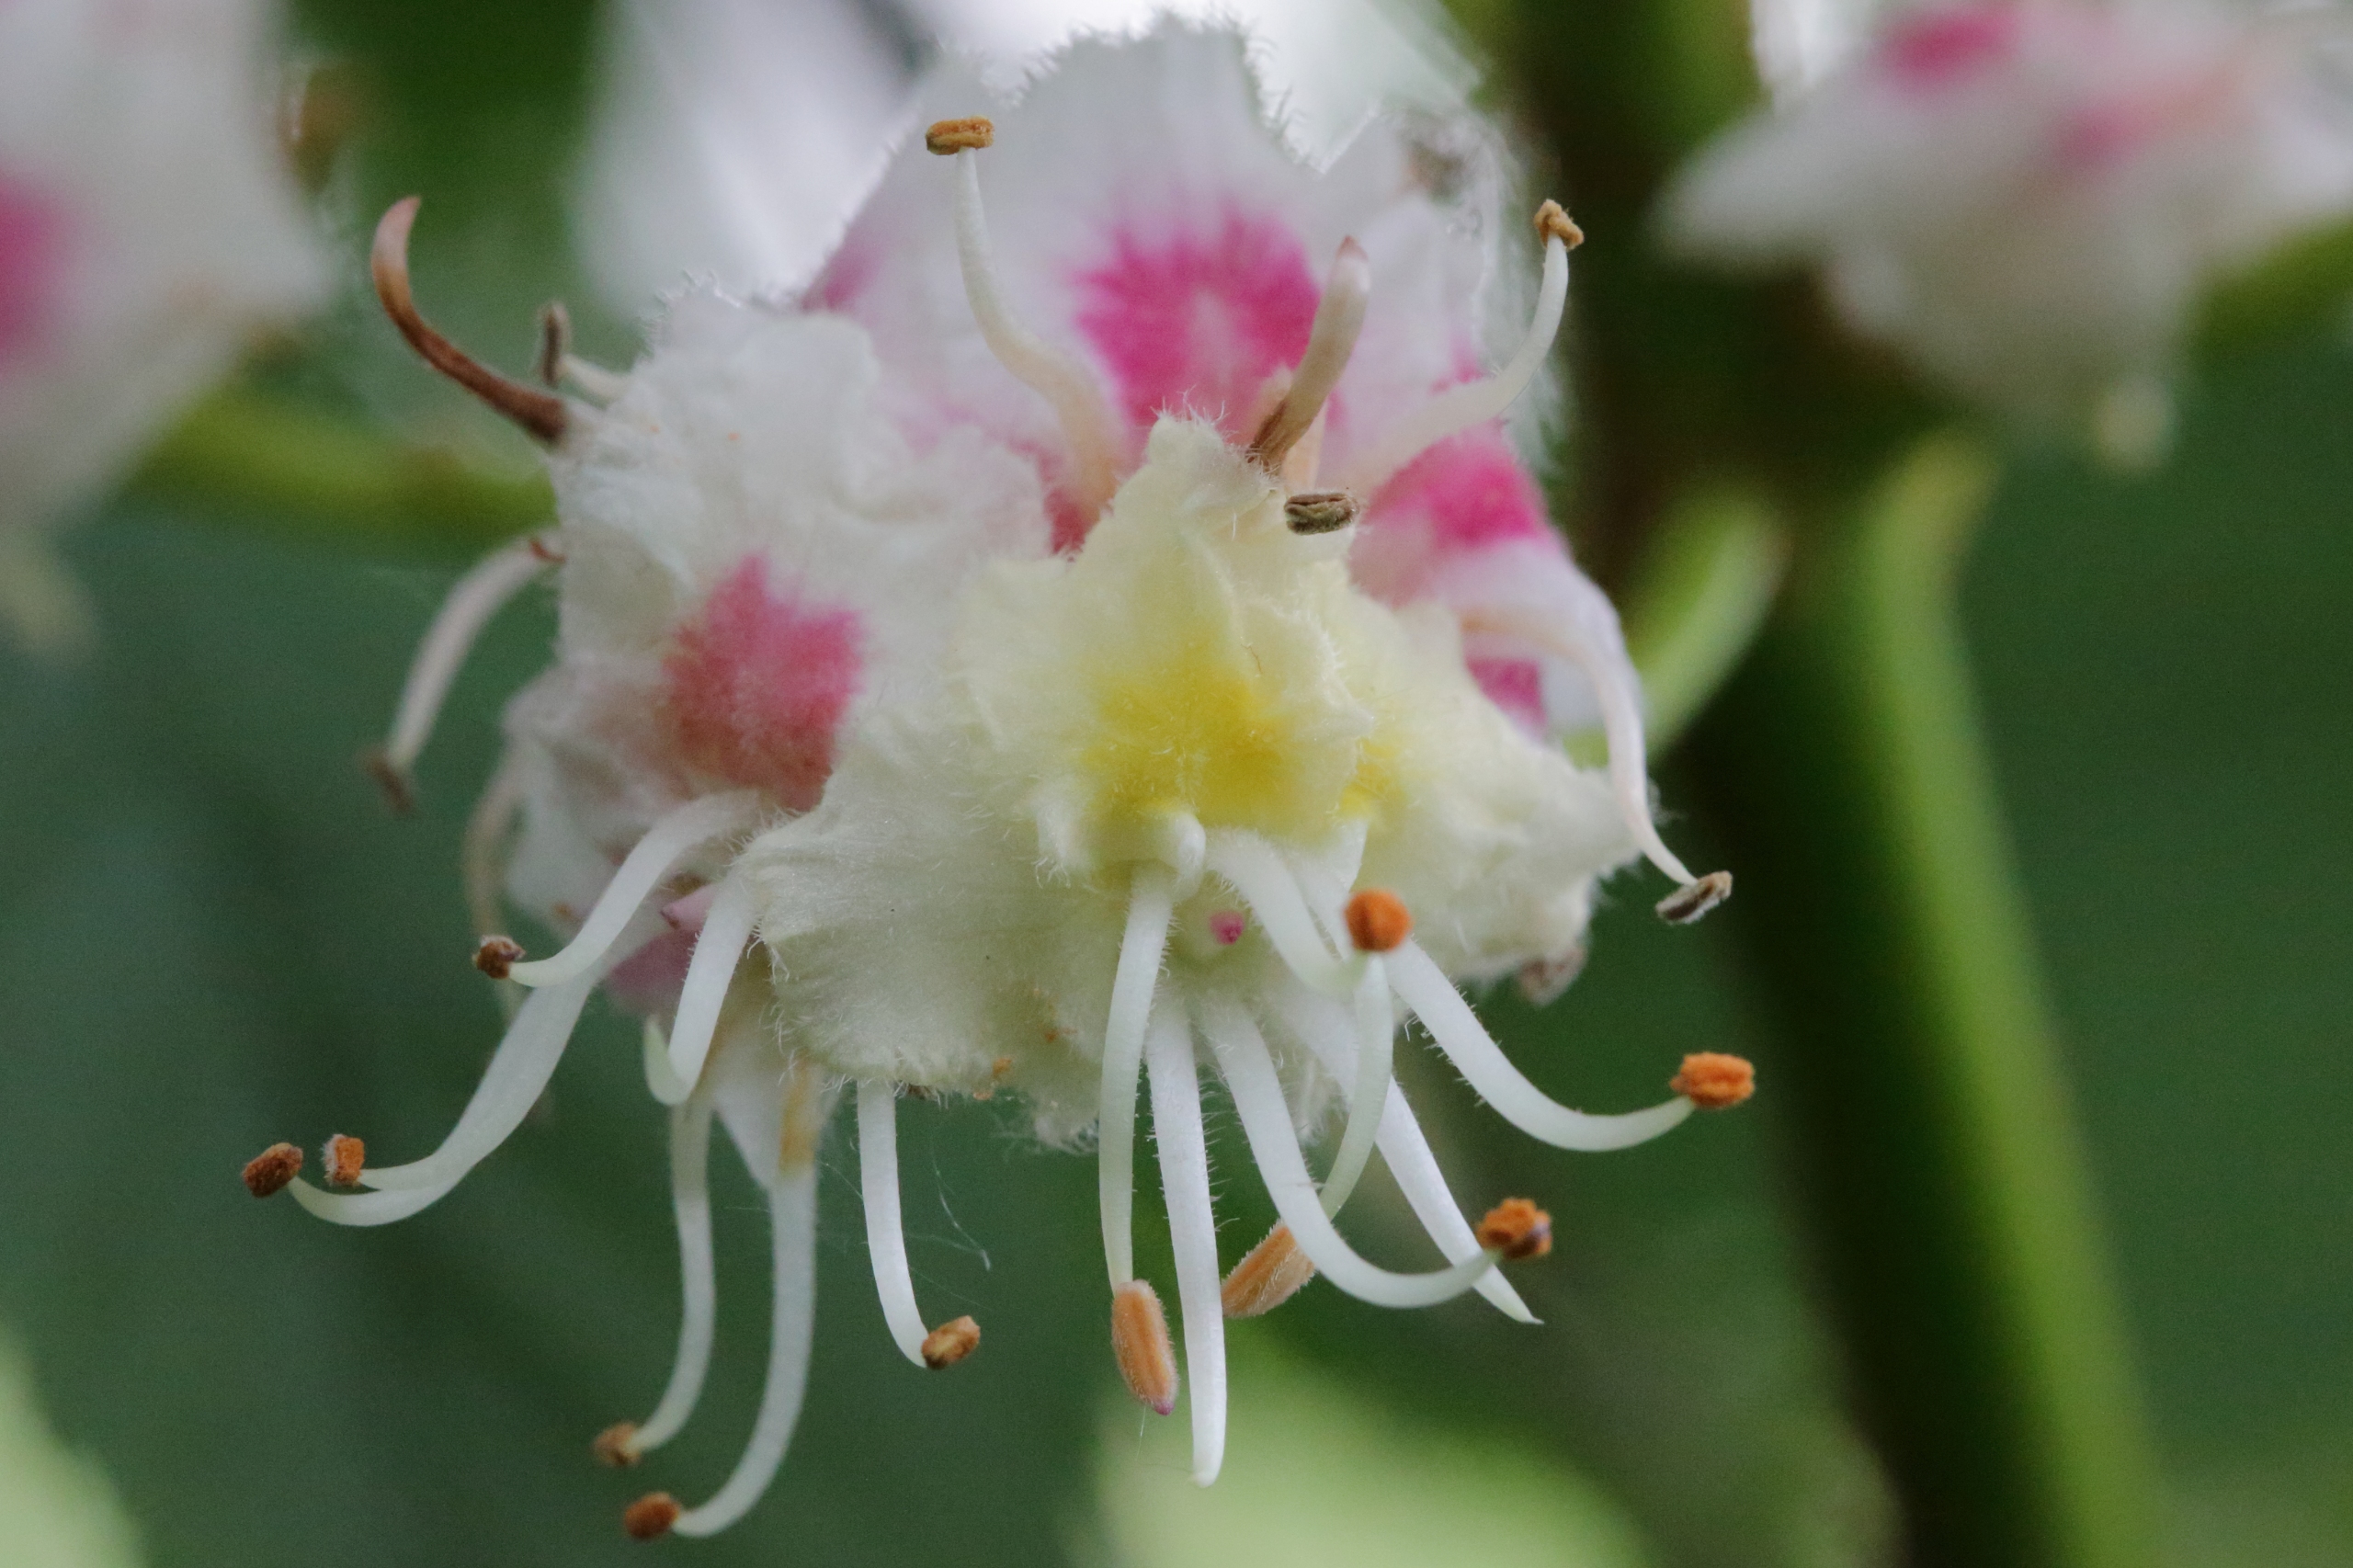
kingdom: Plantae
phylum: Tracheophyta
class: Magnoliopsida
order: Sapindales
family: Sapindaceae
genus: Aesculus
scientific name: Aesculus hippocastanum
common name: Hestekastanie
